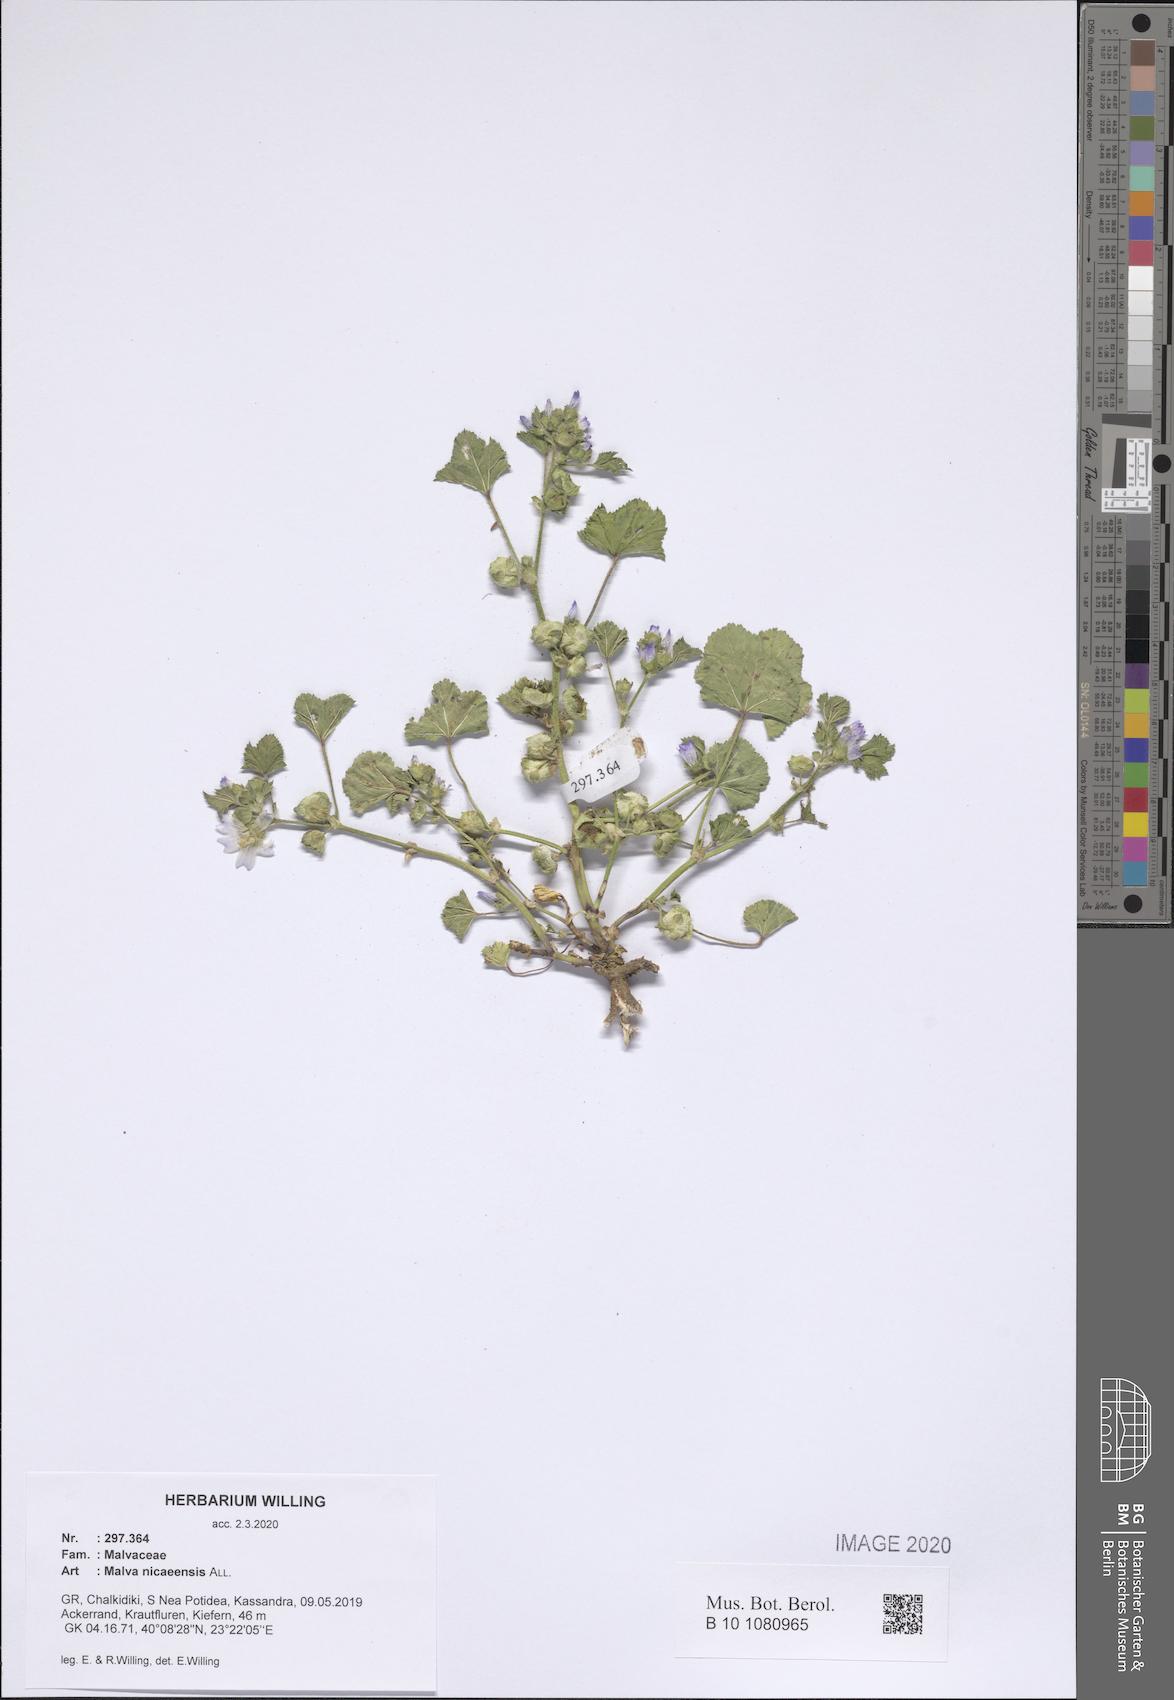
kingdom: Plantae
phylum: Tracheophyta
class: Magnoliopsida
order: Malvales
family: Malvaceae
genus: Malva
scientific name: Malva nicaeensis
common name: French mallow
